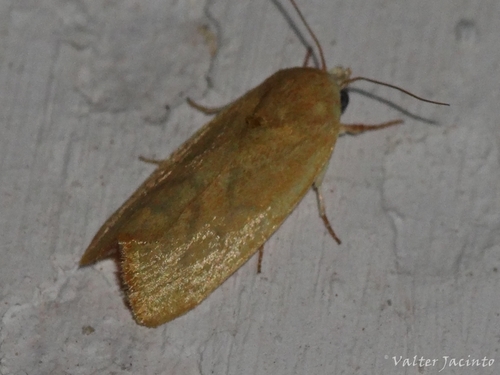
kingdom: Animalia
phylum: Arthropoda
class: Insecta
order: Lepidoptera
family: Nolidae
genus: Earias
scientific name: Earias insulana
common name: Egyptian bollworm
